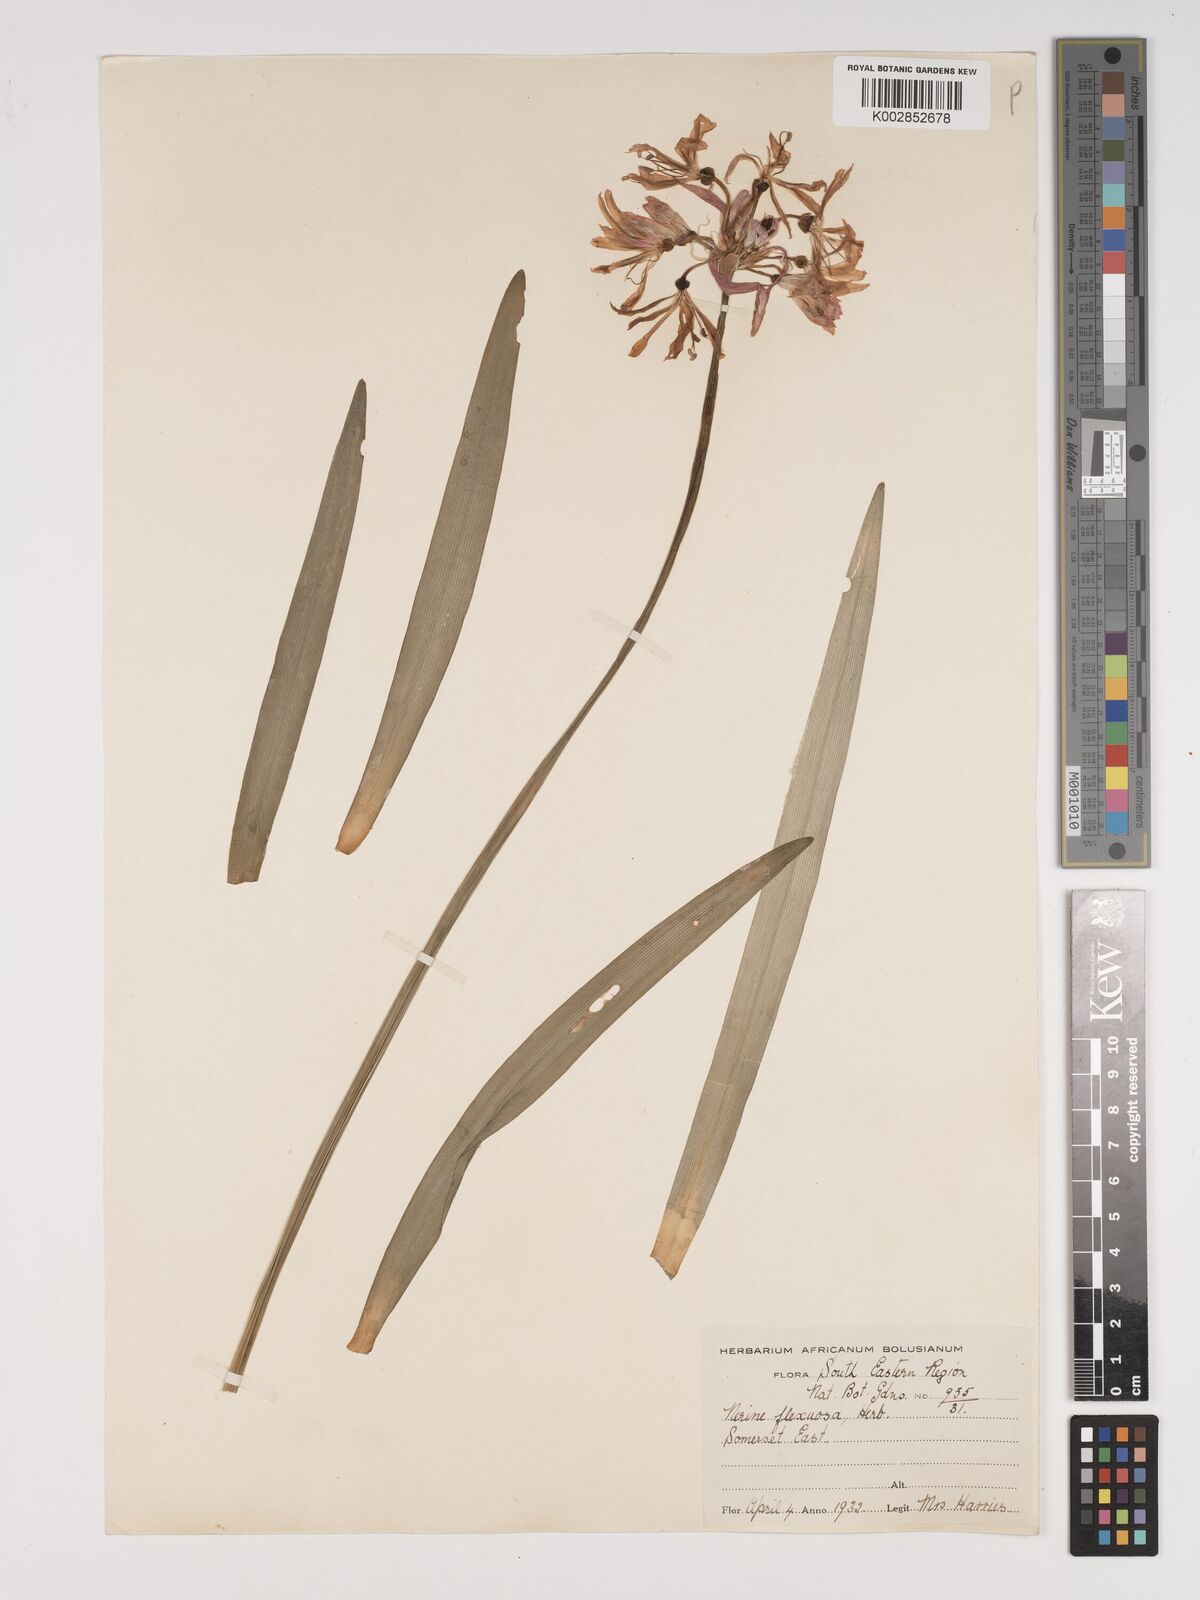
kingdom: Plantae
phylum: Tracheophyta
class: Liliopsida
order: Asparagales
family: Amaryllidaceae
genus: Nerine
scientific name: Nerine undulata
